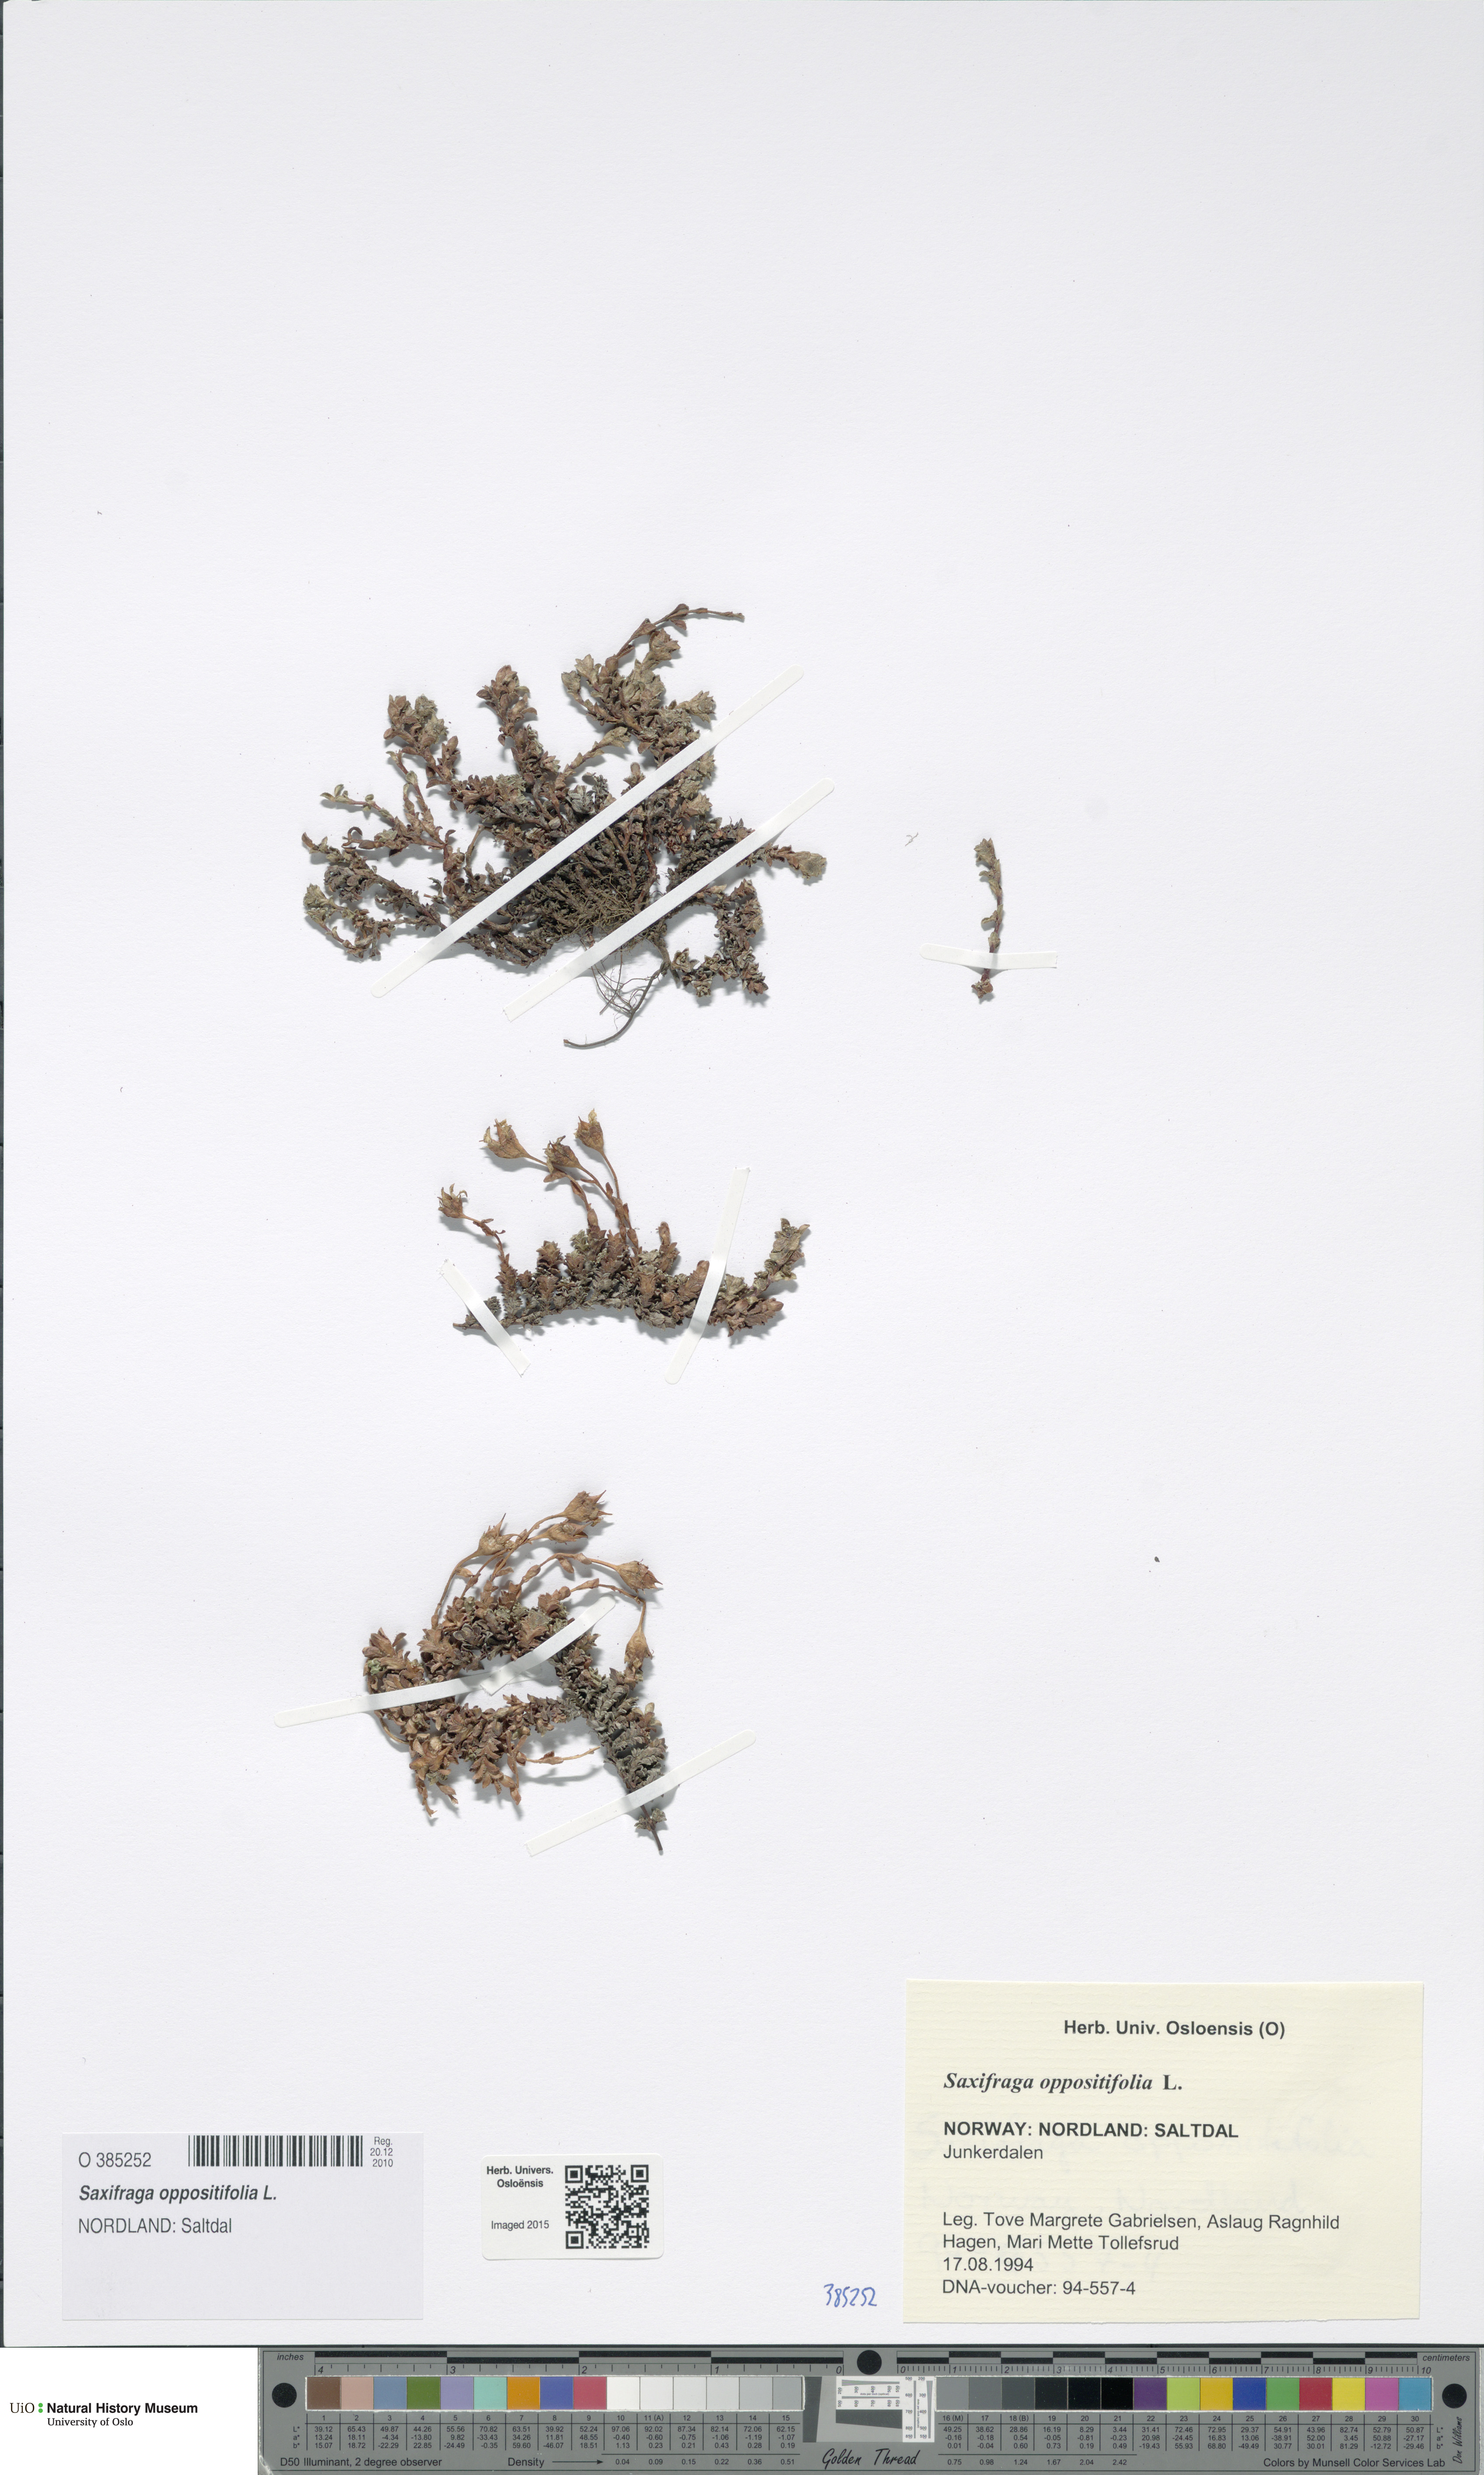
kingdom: Plantae
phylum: Tracheophyta
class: Magnoliopsida
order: Saxifragales
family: Saxifragaceae
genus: Saxifraga
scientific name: Saxifraga oppositifolia
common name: Purple saxifrage
